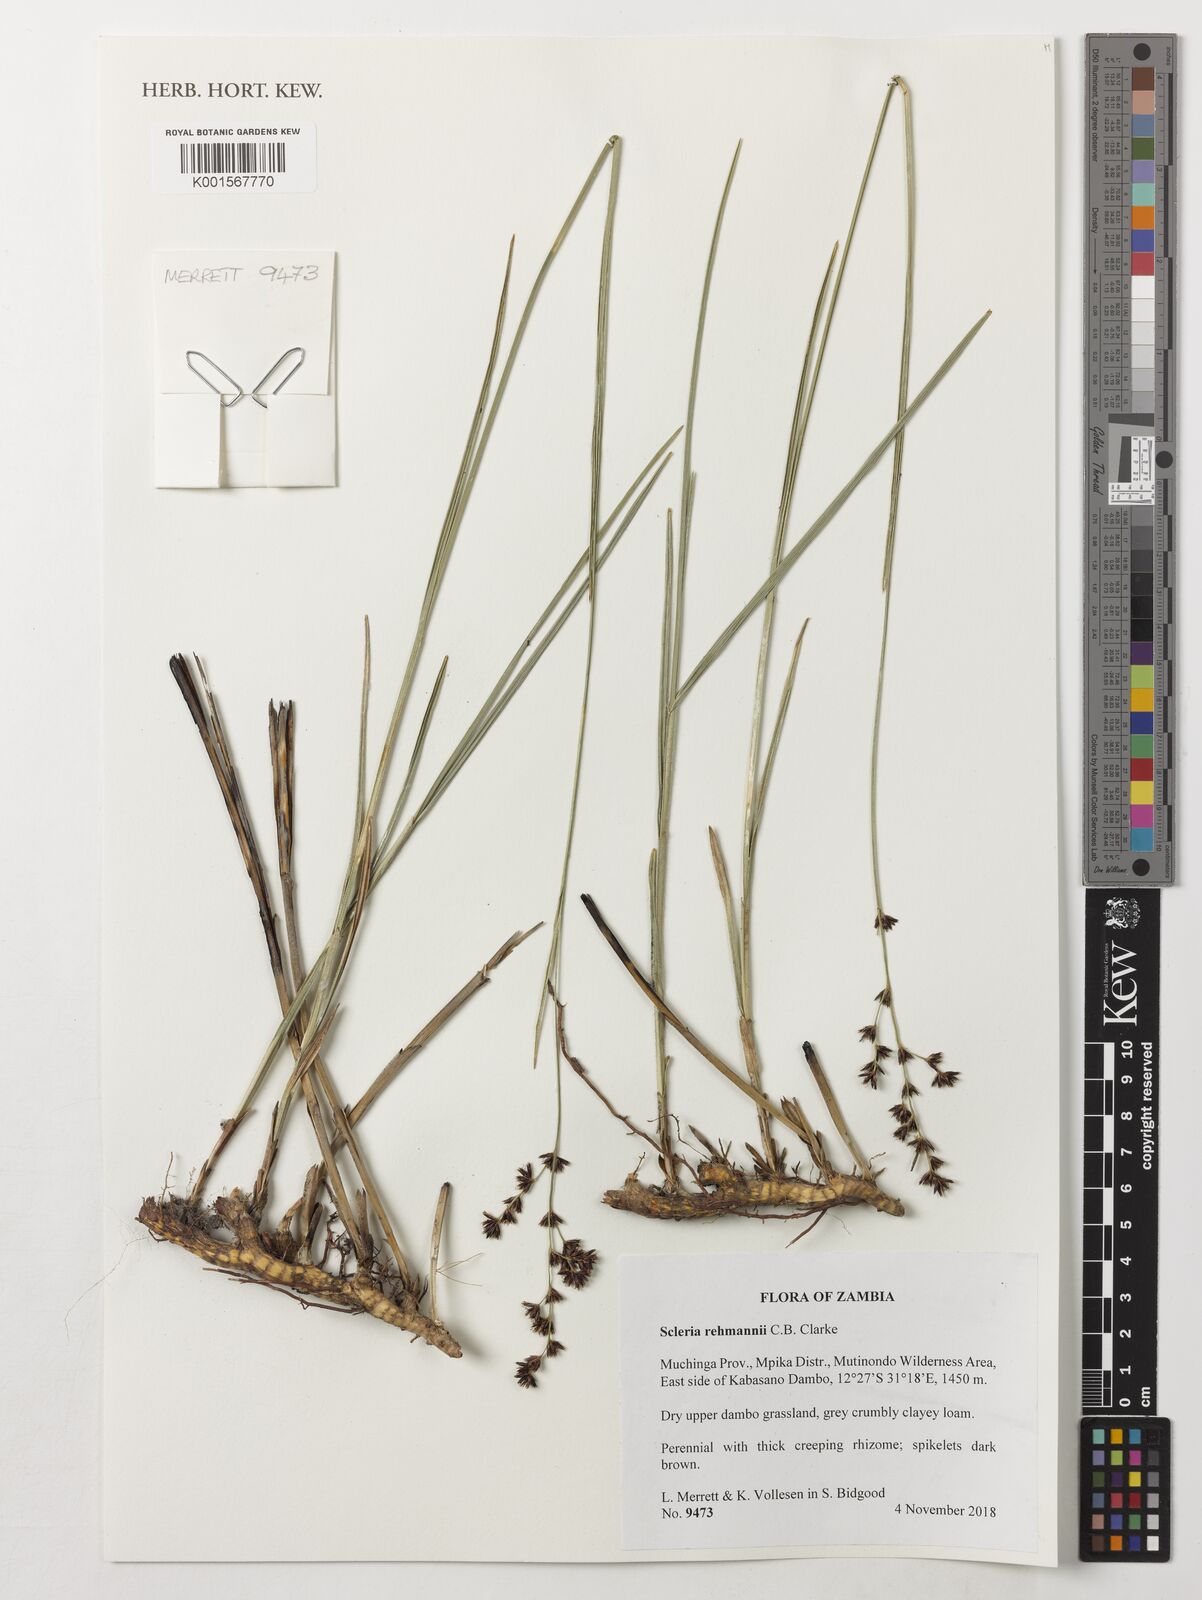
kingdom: Plantae
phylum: Tracheophyta
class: Liliopsida
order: Poales
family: Cyperaceae
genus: Scleria
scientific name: Scleria rehmannii
